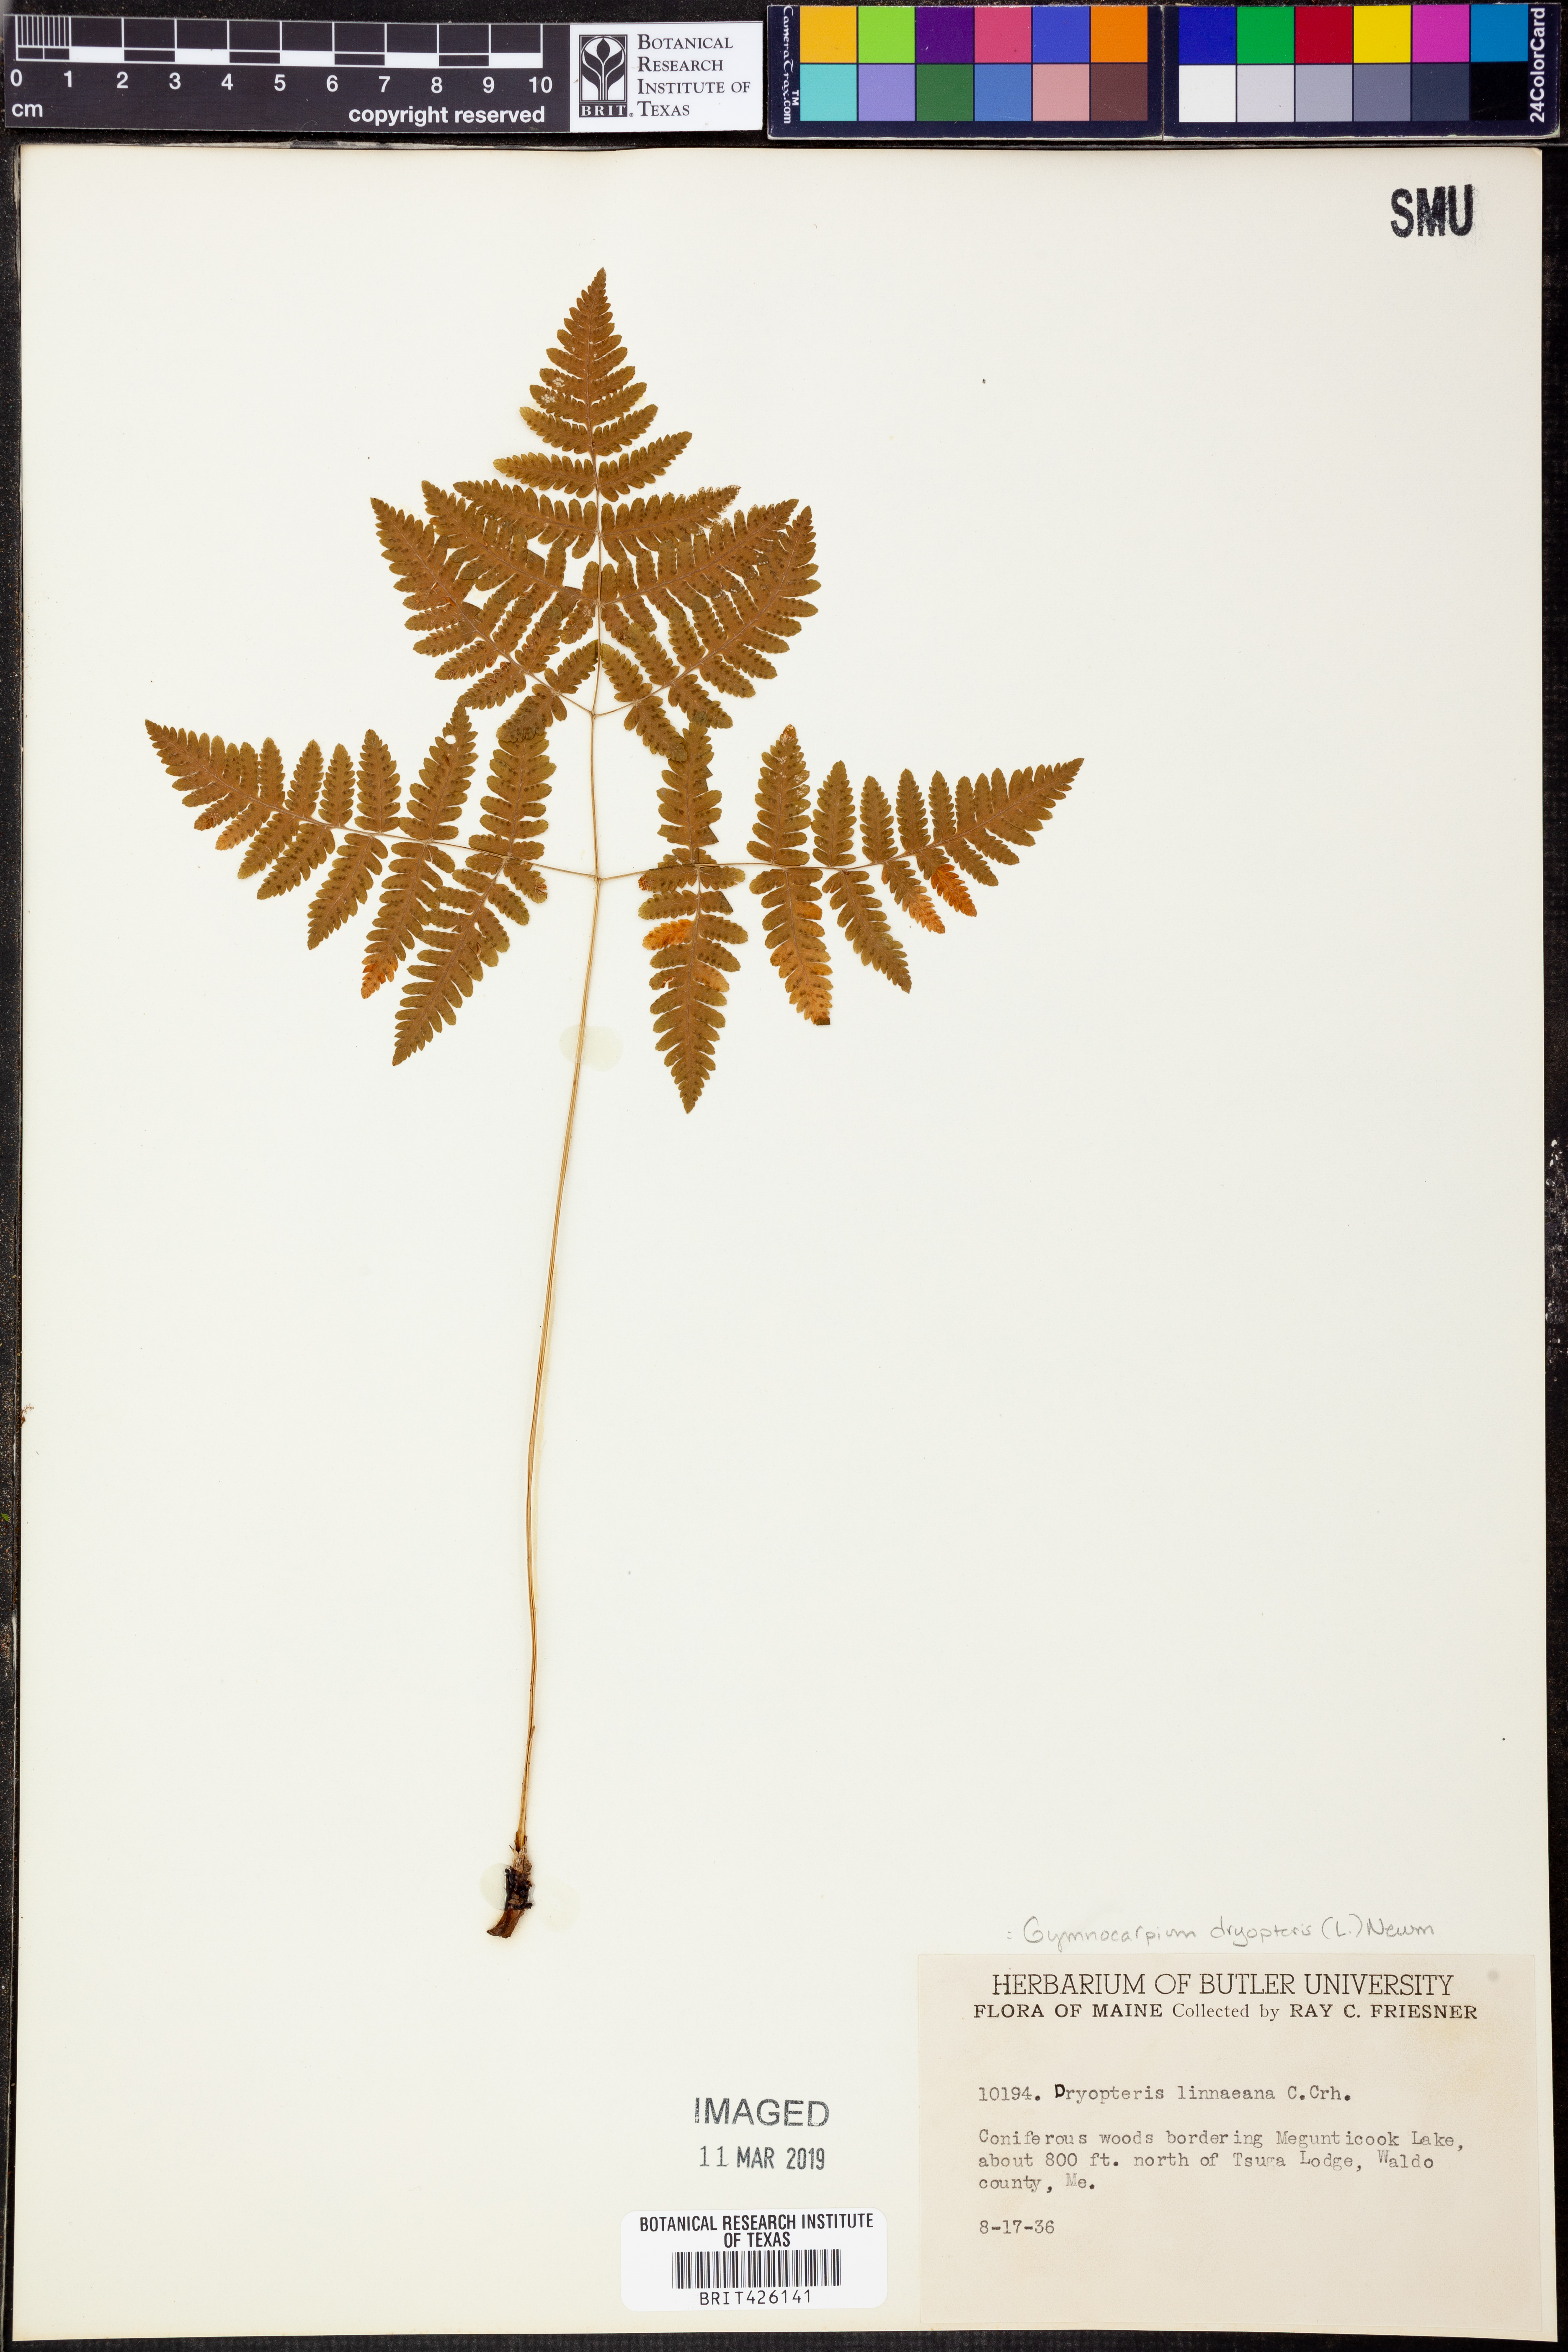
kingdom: Plantae
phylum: Tracheophyta
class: Polypodiopsida
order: Polypodiales
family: Cystopteridaceae
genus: Gymnocarpium
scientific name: Gymnocarpium dryopteris
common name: Oak fern
